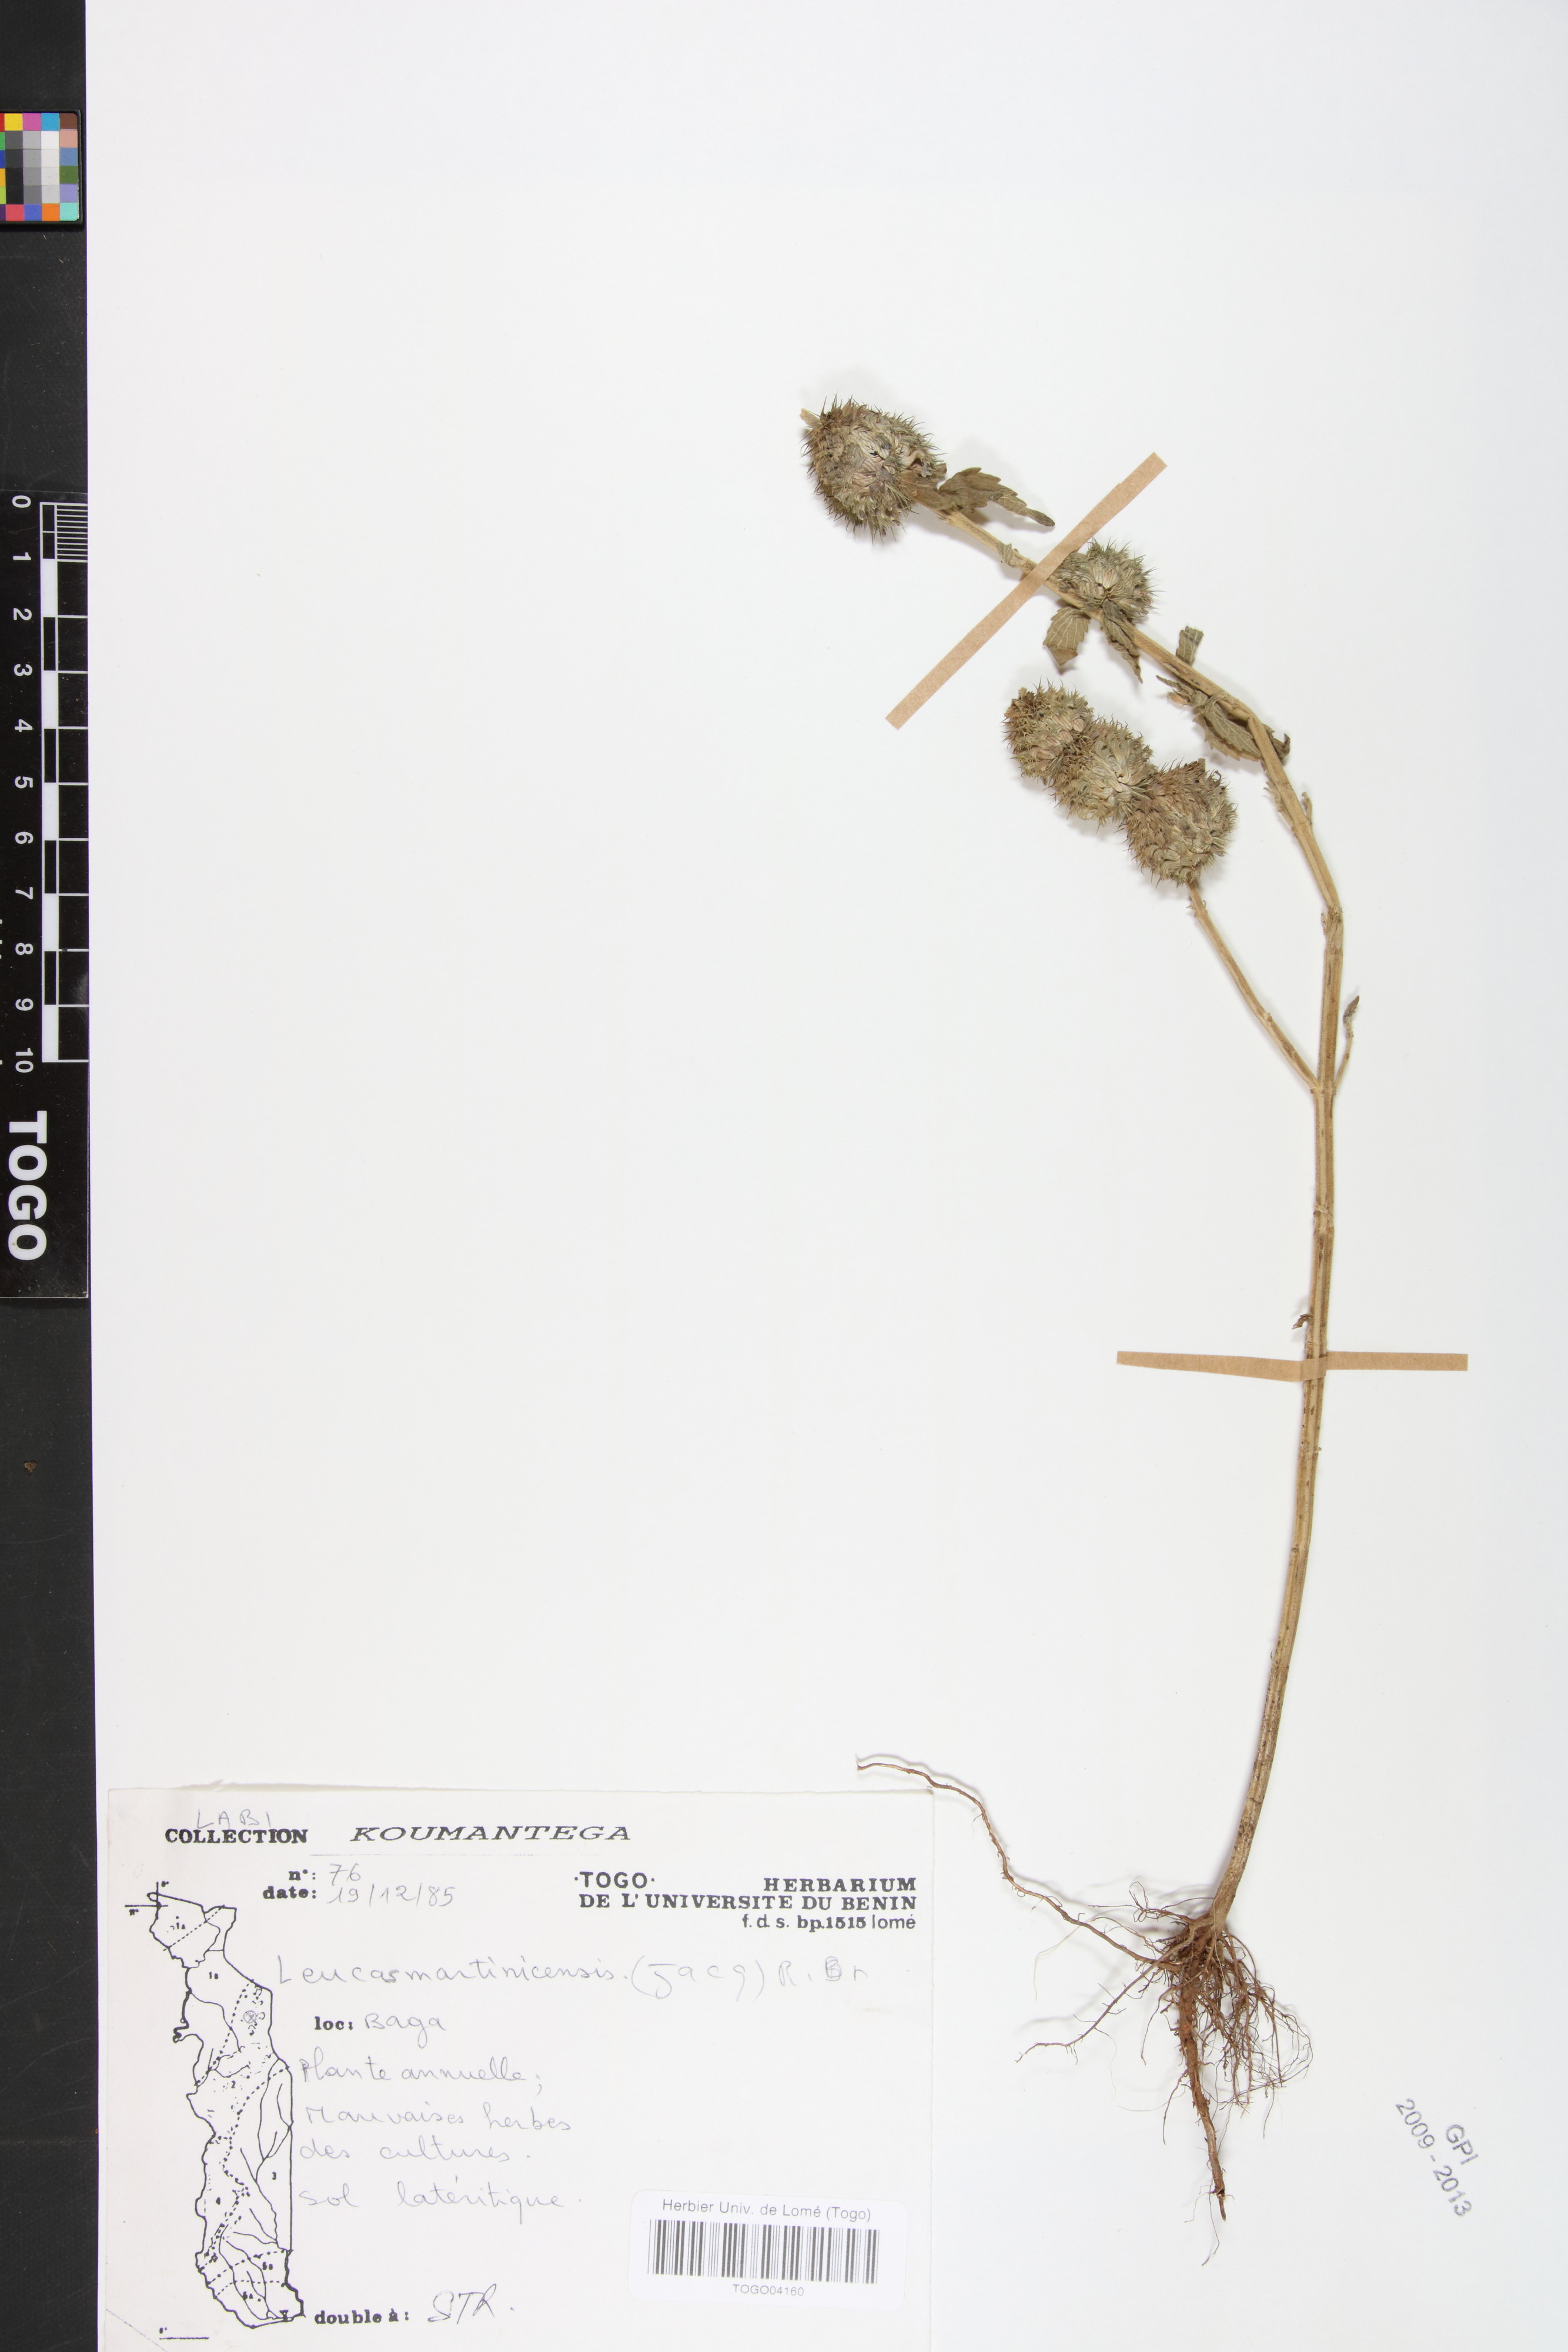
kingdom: Plantae
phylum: Tracheophyta
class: Magnoliopsida
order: Lamiales
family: Lamiaceae
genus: Leucas
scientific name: Leucas martinicensis
